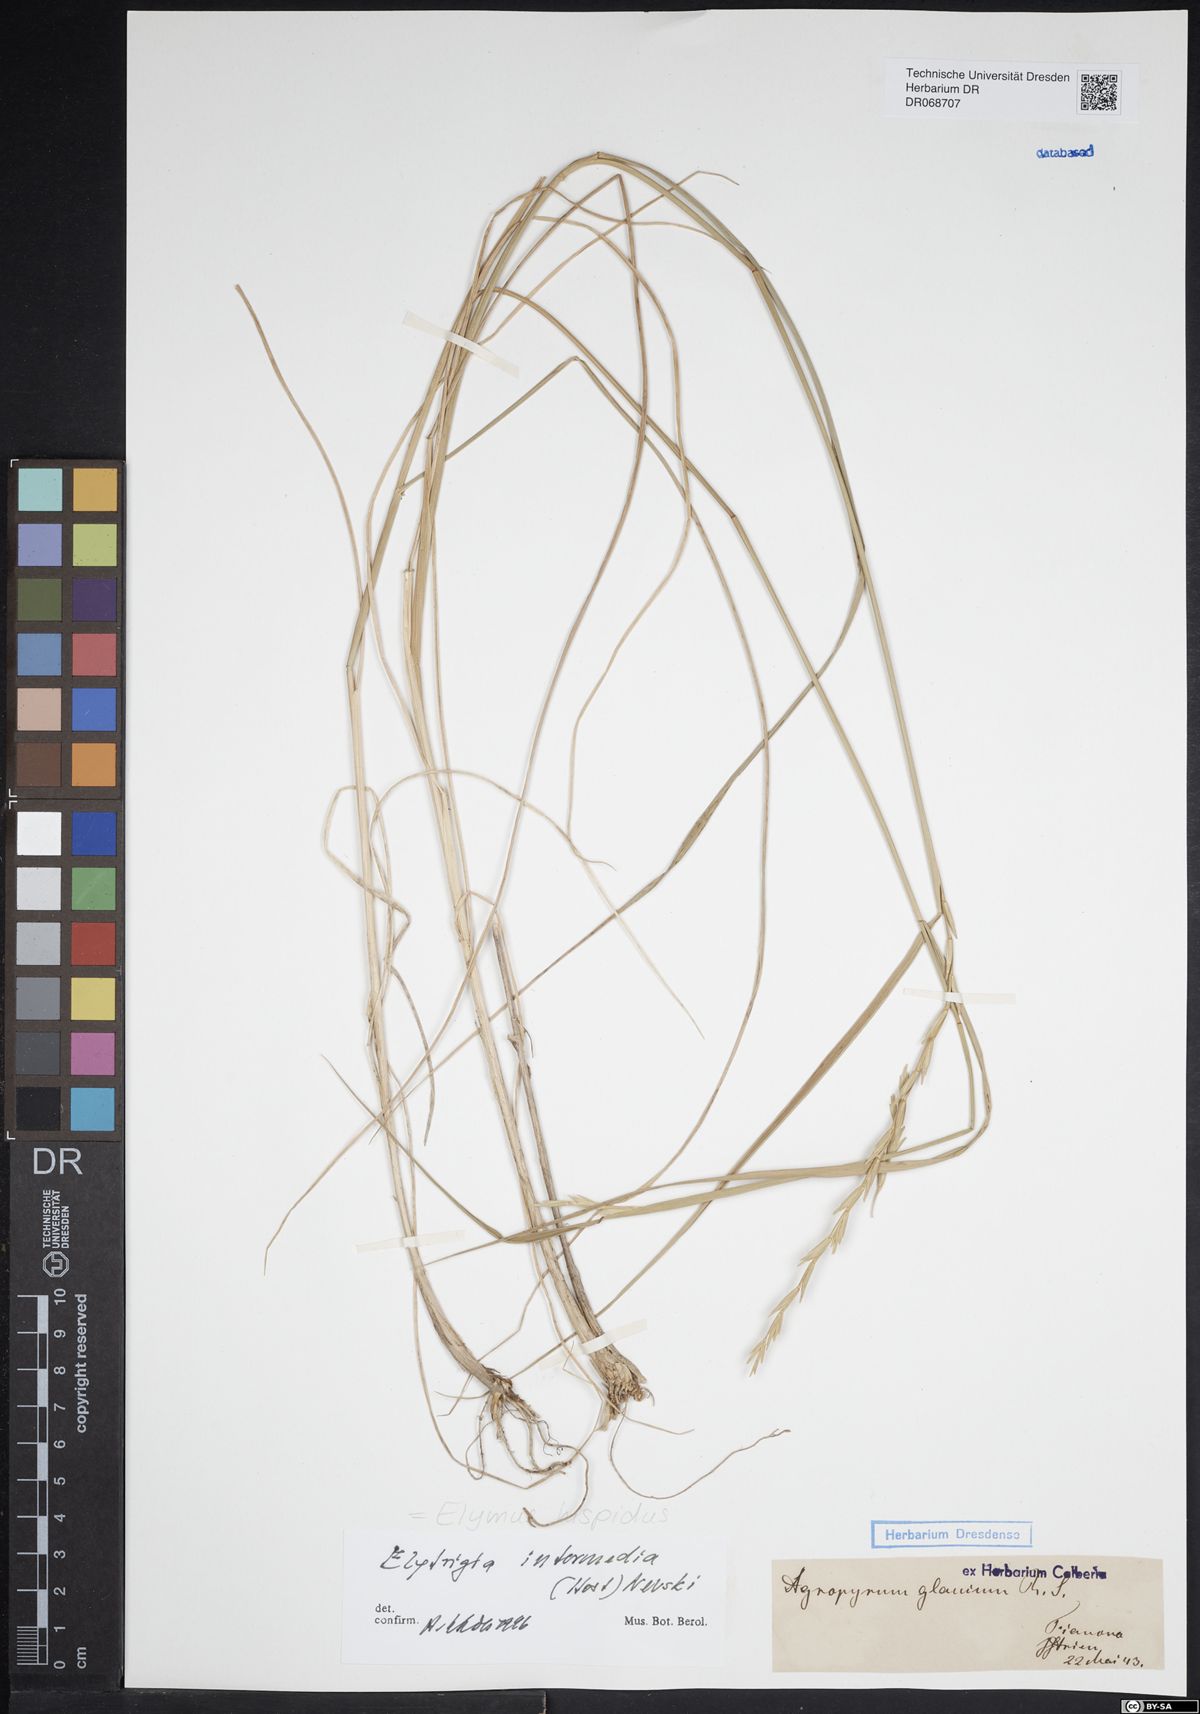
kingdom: Plantae
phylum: Tracheophyta
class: Liliopsida
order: Poales
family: Poaceae
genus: Thinopyrum
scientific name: Thinopyrum intermedium
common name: Intermediate wheatgrass
